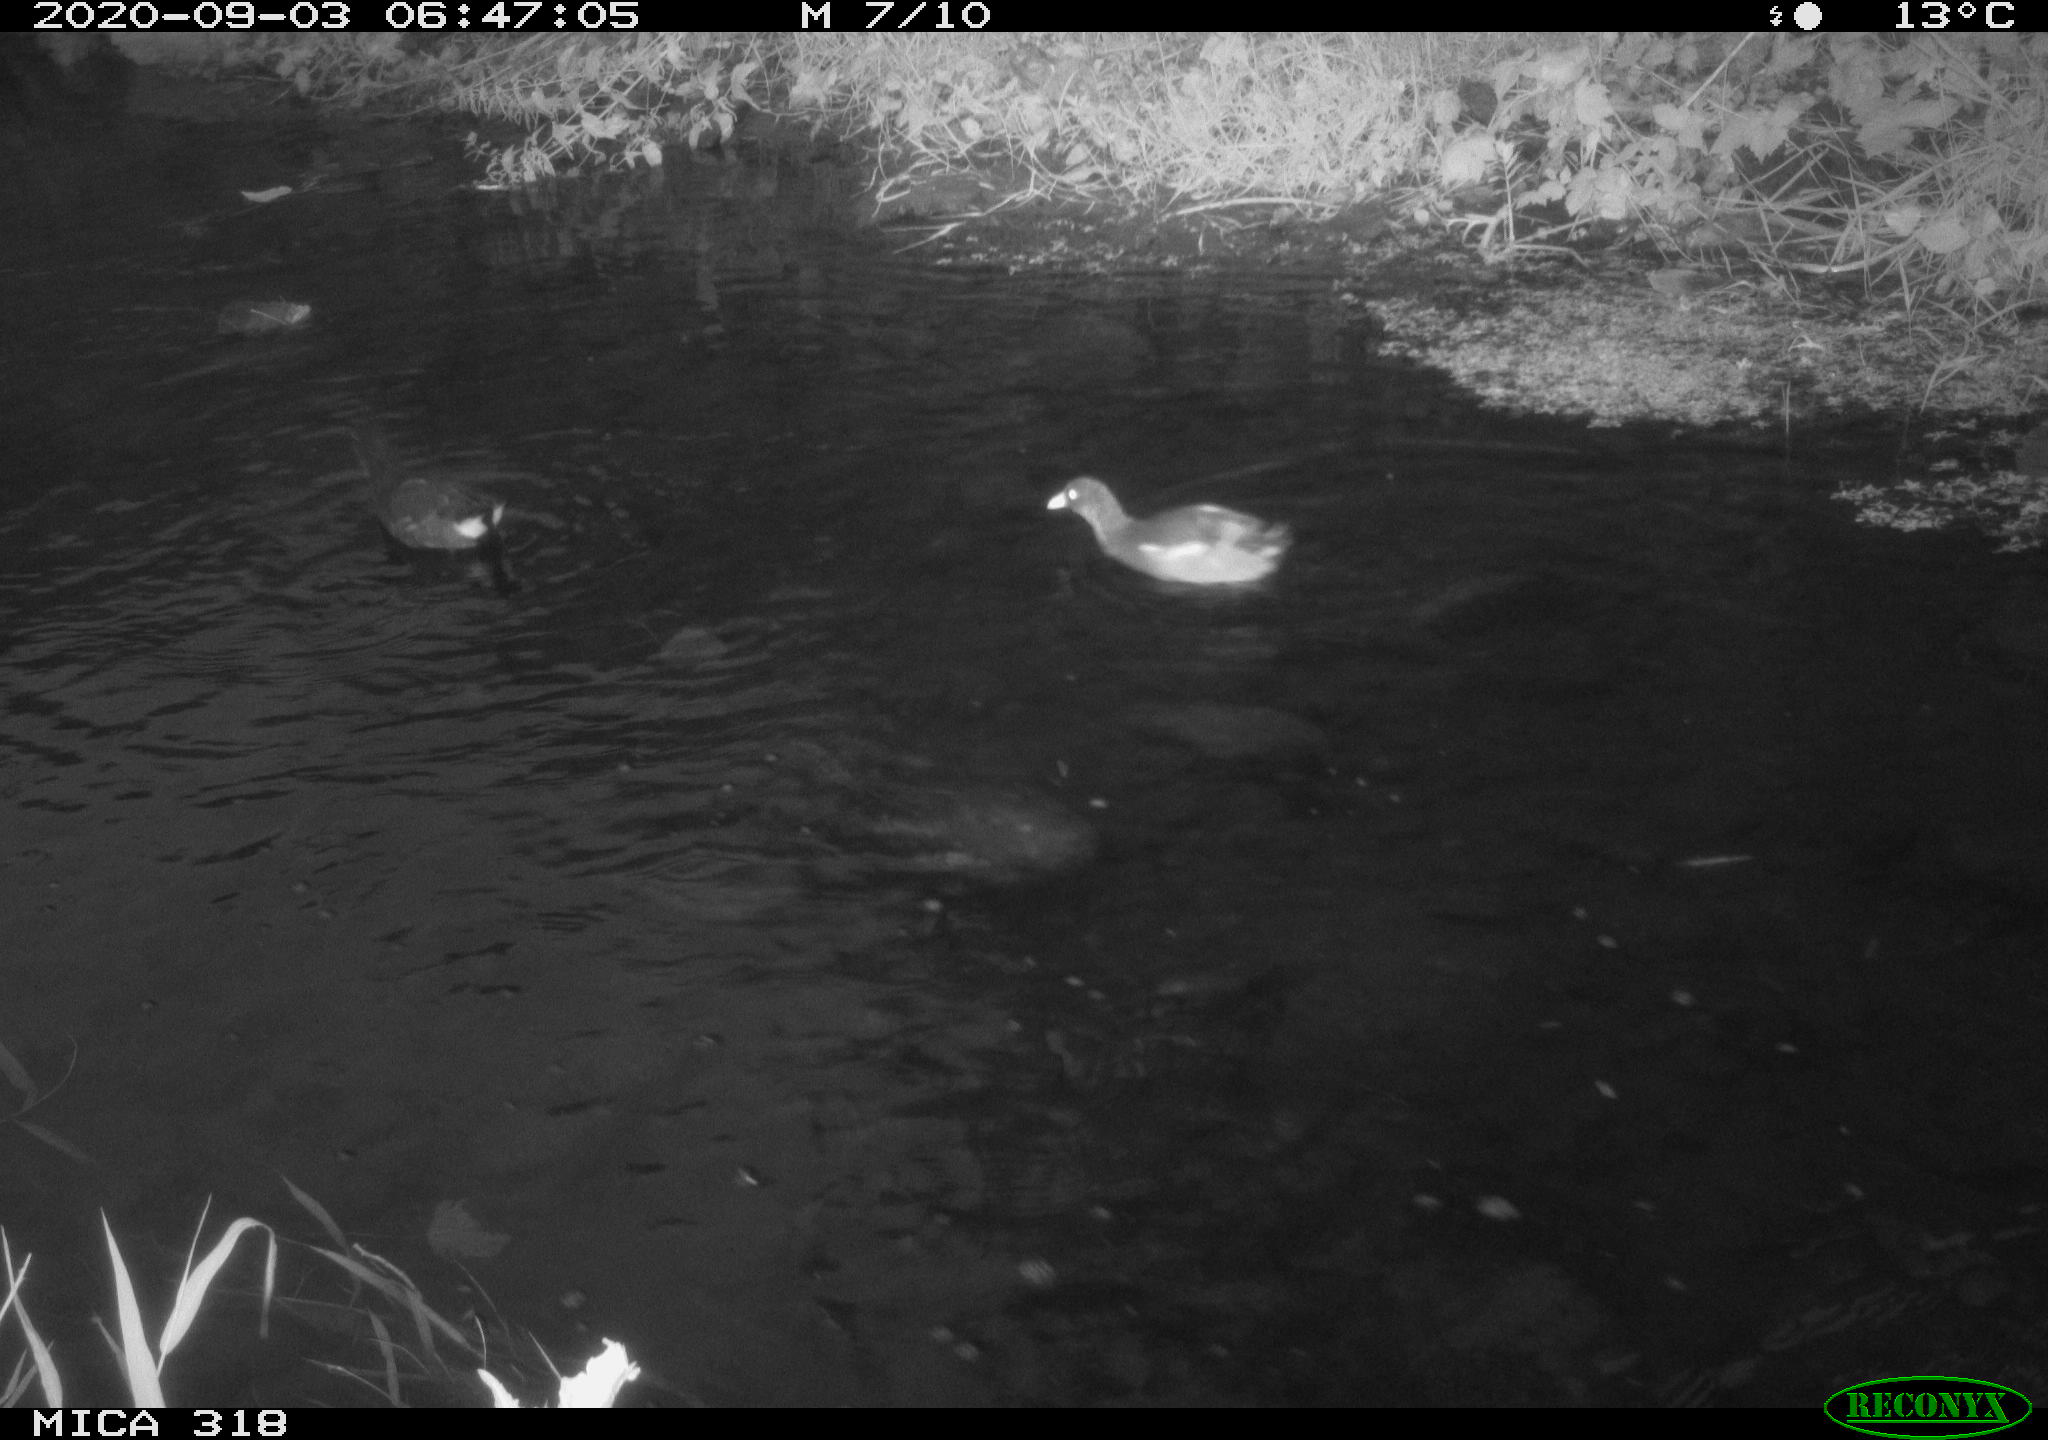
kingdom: Animalia
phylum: Chordata
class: Aves
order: Gruiformes
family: Rallidae
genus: Gallinula
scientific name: Gallinula chloropus
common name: Common moorhen
